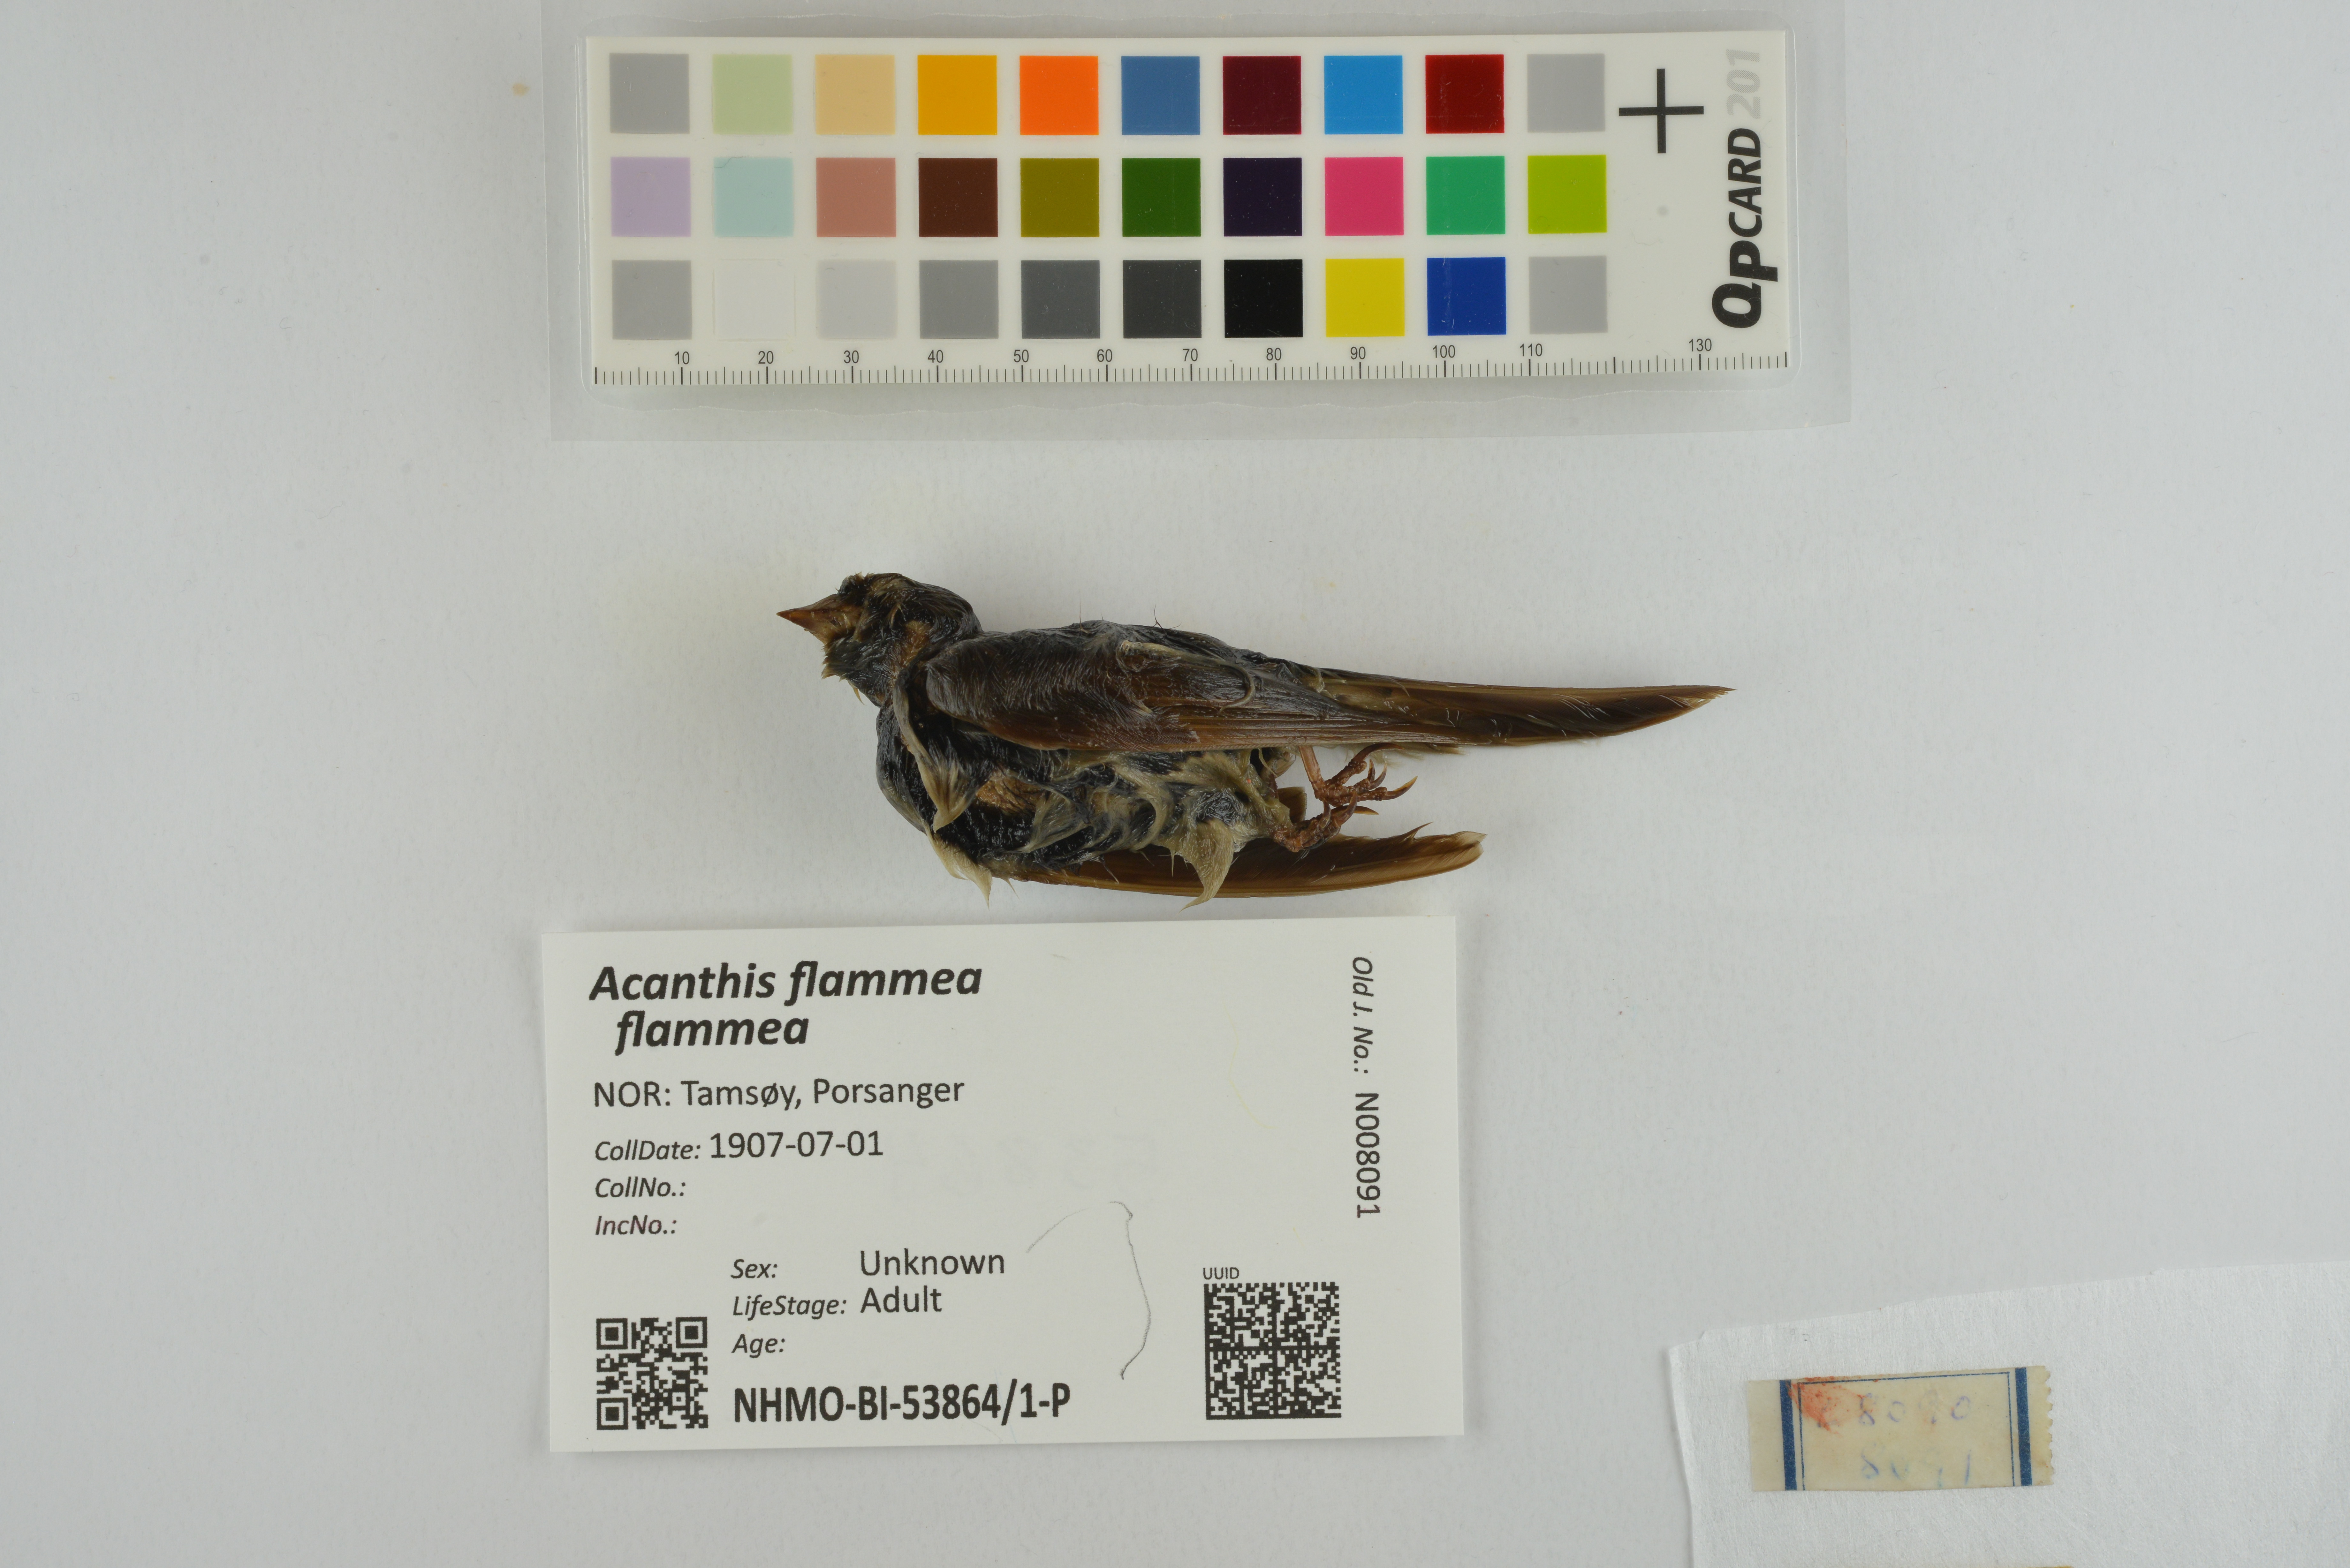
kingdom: Animalia
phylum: Chordata
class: Aves
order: Passeriformes
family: Fringillidae
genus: Acanthis
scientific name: Acanthis flammea
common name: Common redpoll
